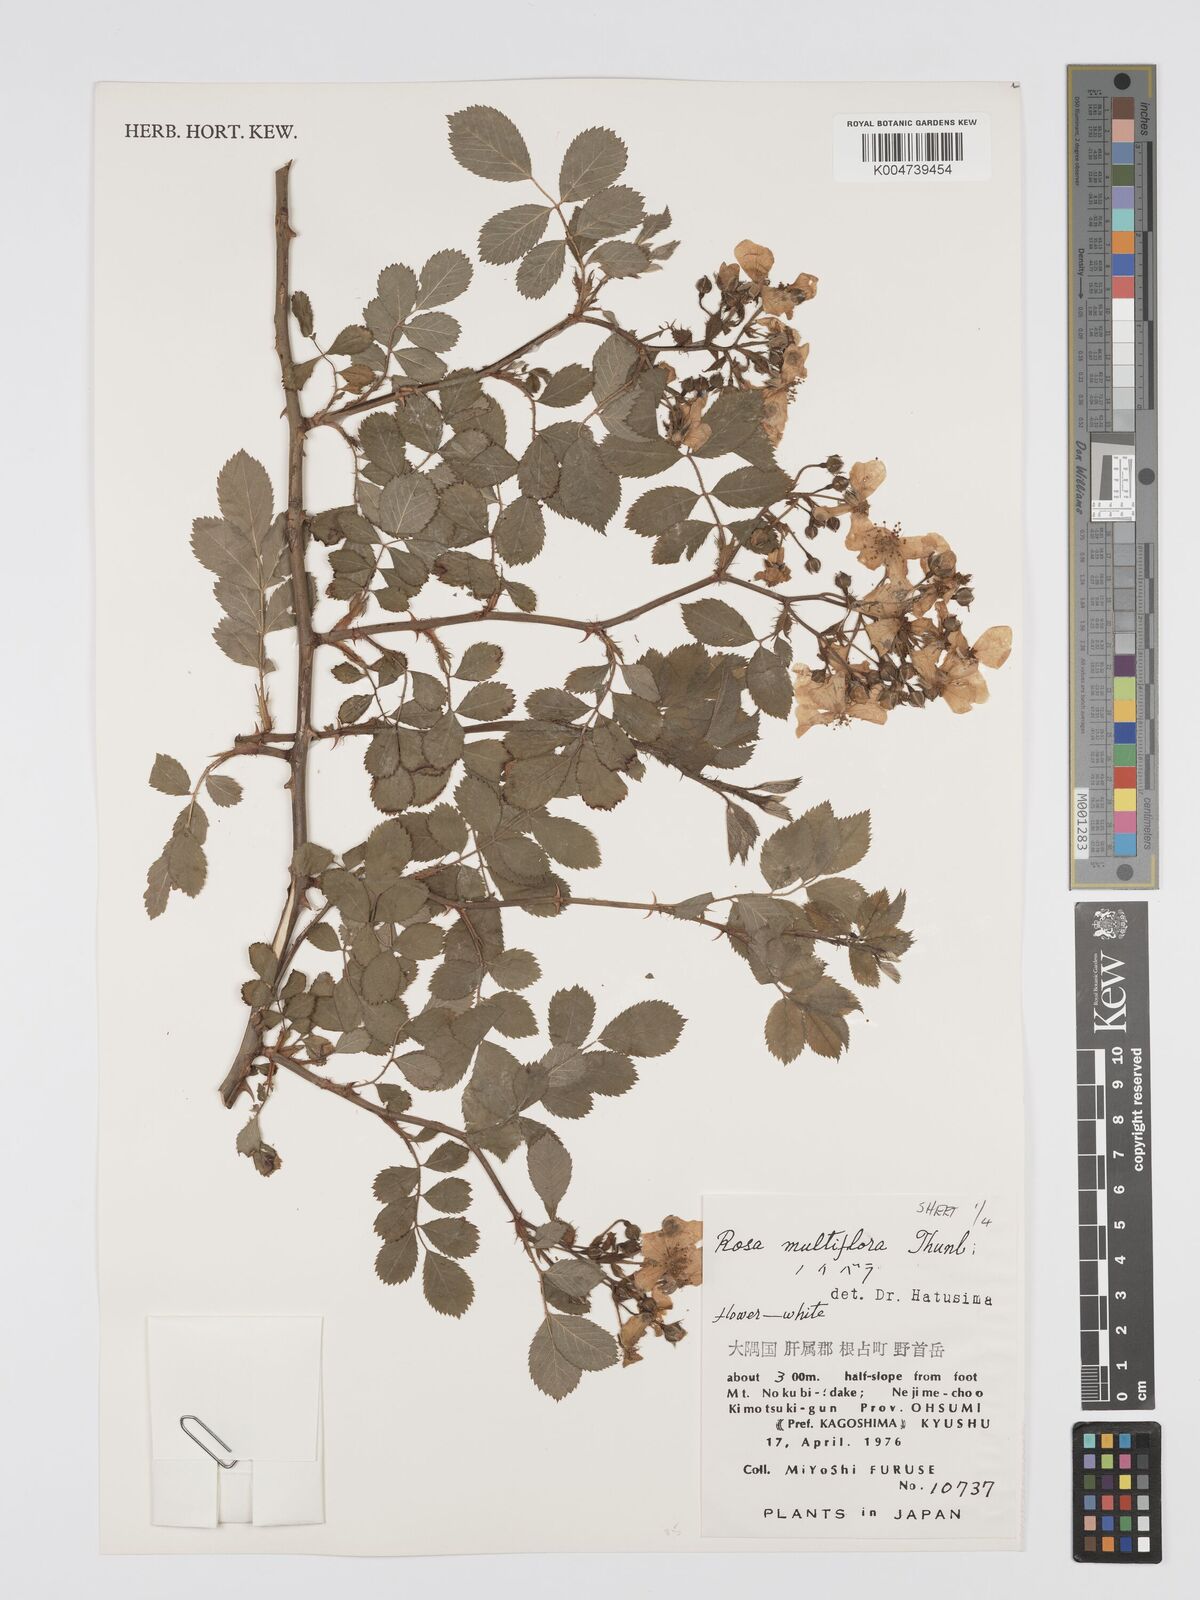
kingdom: Plantae
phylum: Tracheophyta
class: Magnoliopsida
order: Rosales
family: Rosaceae
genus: Rosa
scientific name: Rosa
